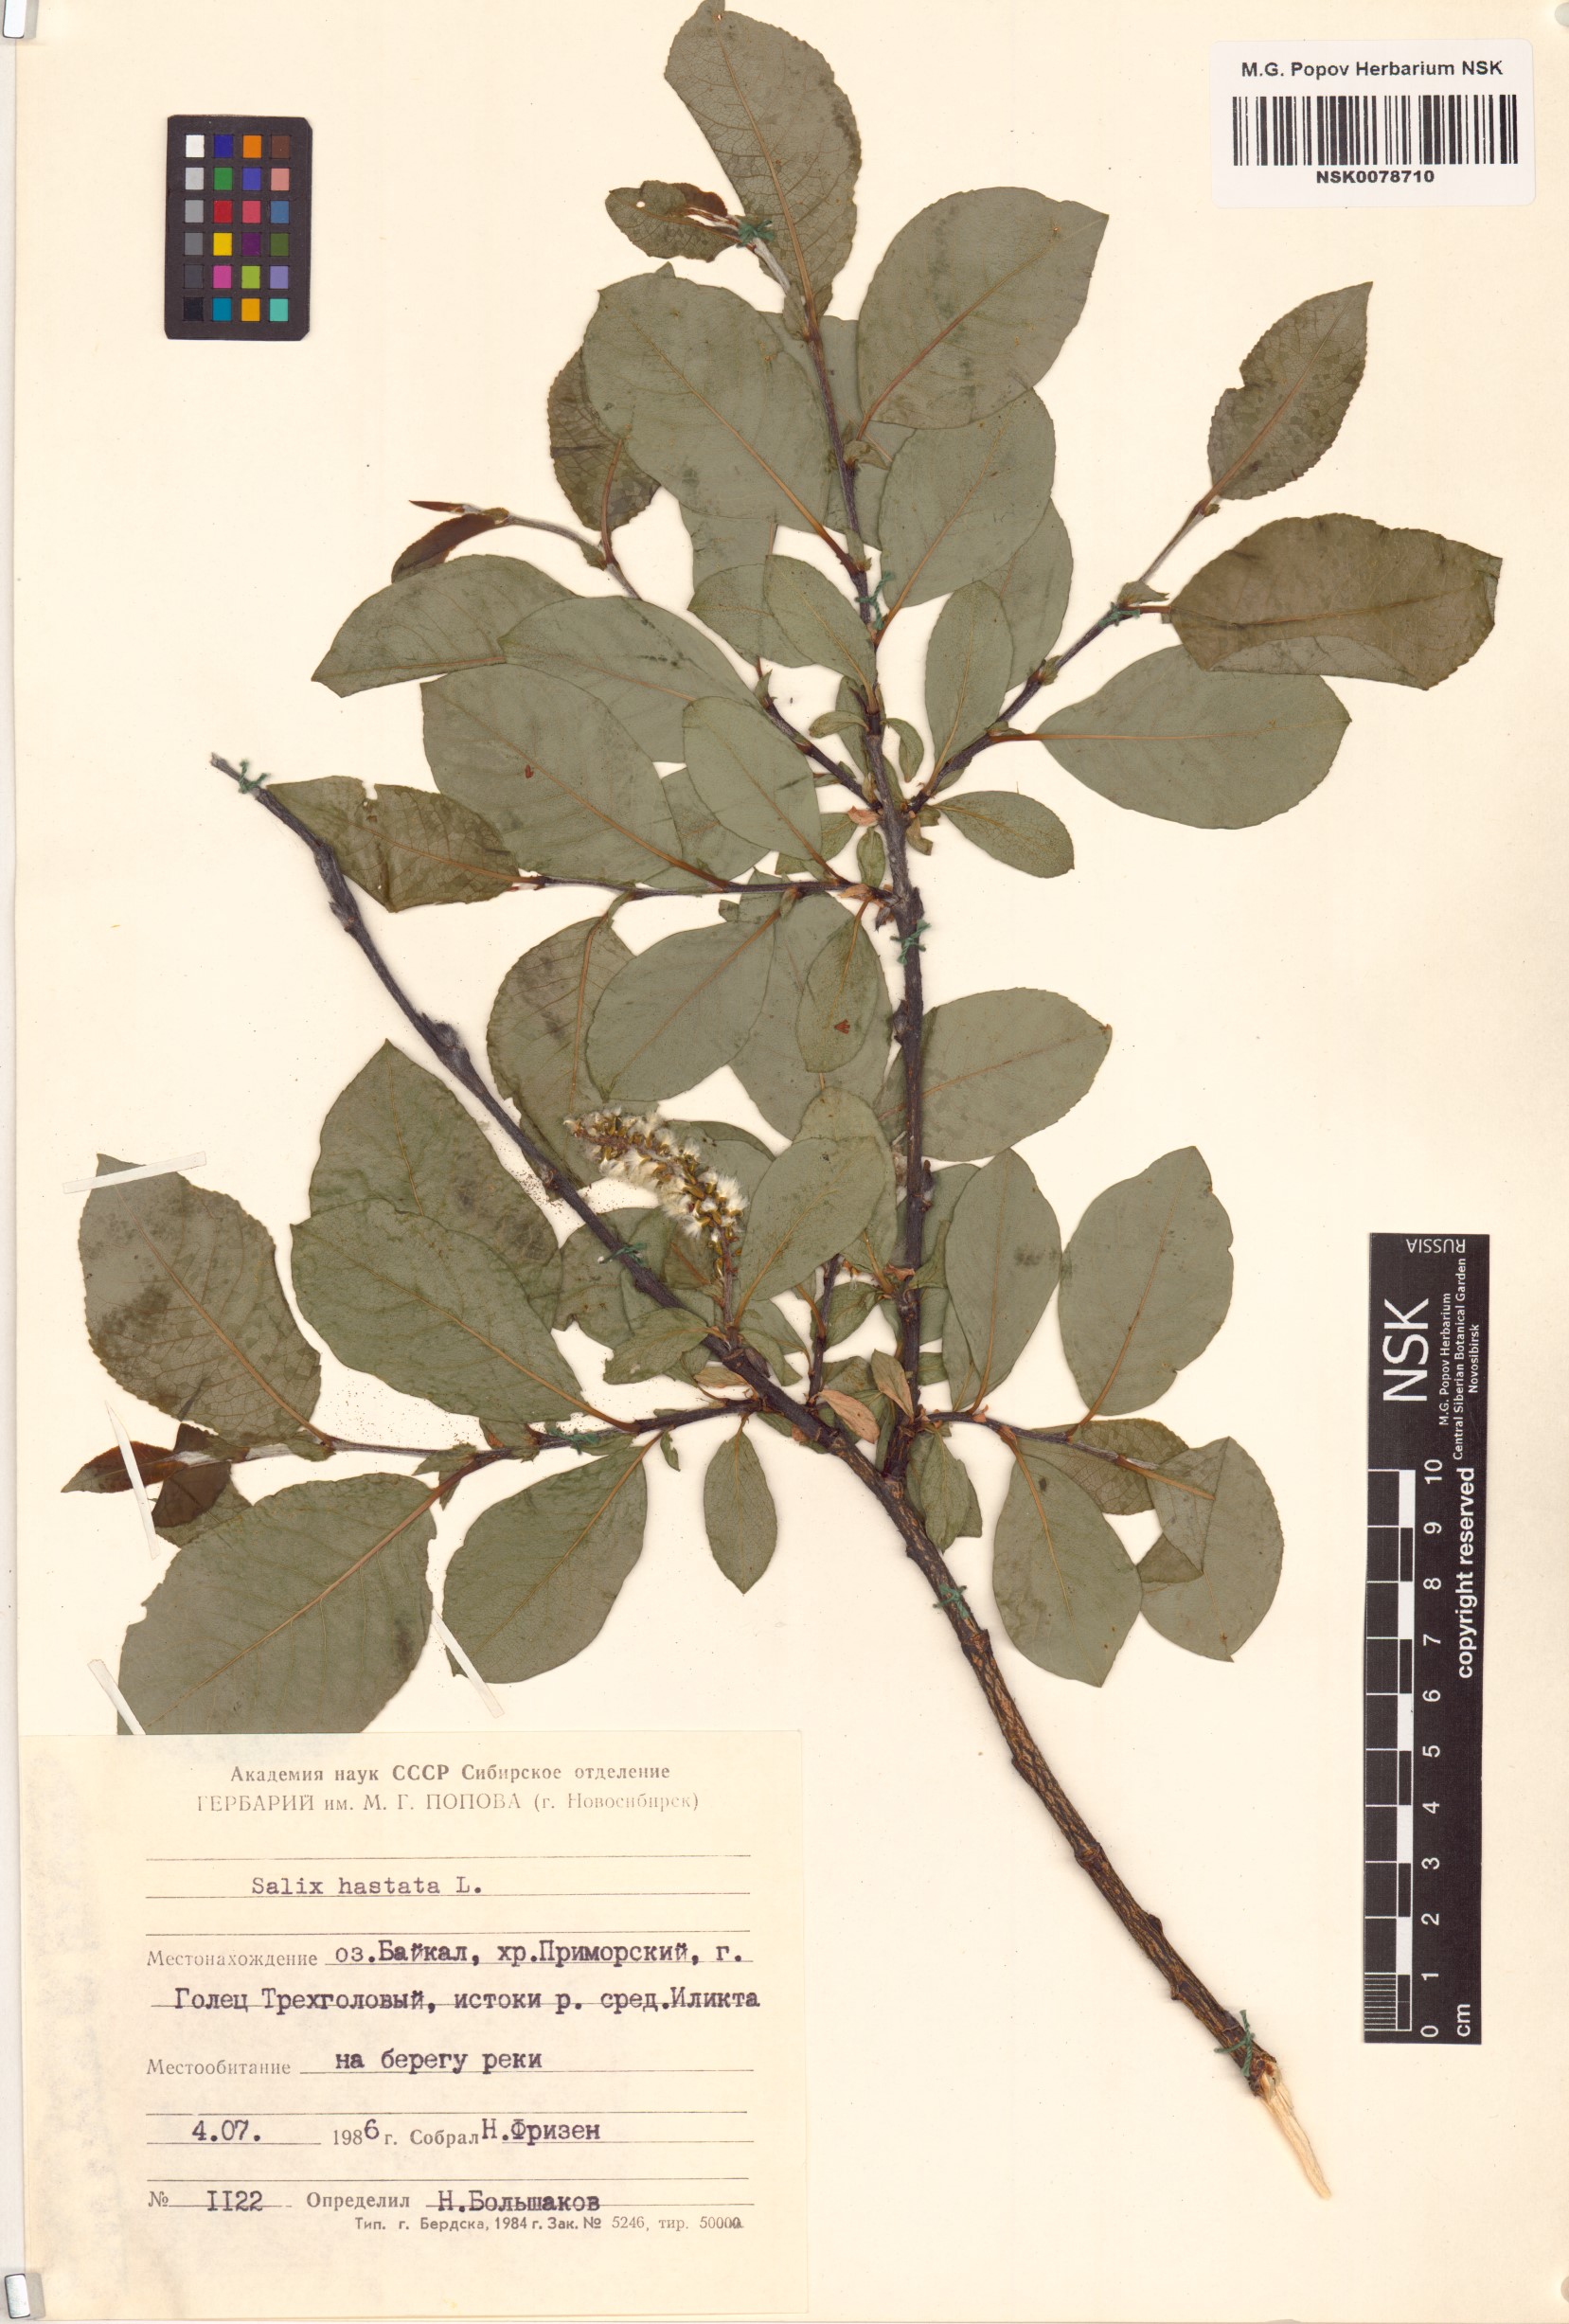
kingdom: Plantae
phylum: Tracheophyta
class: Magnoliopsida
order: Malpighiales
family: Salicaceae
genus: Salix
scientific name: Salix hastata
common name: Halberd willow
